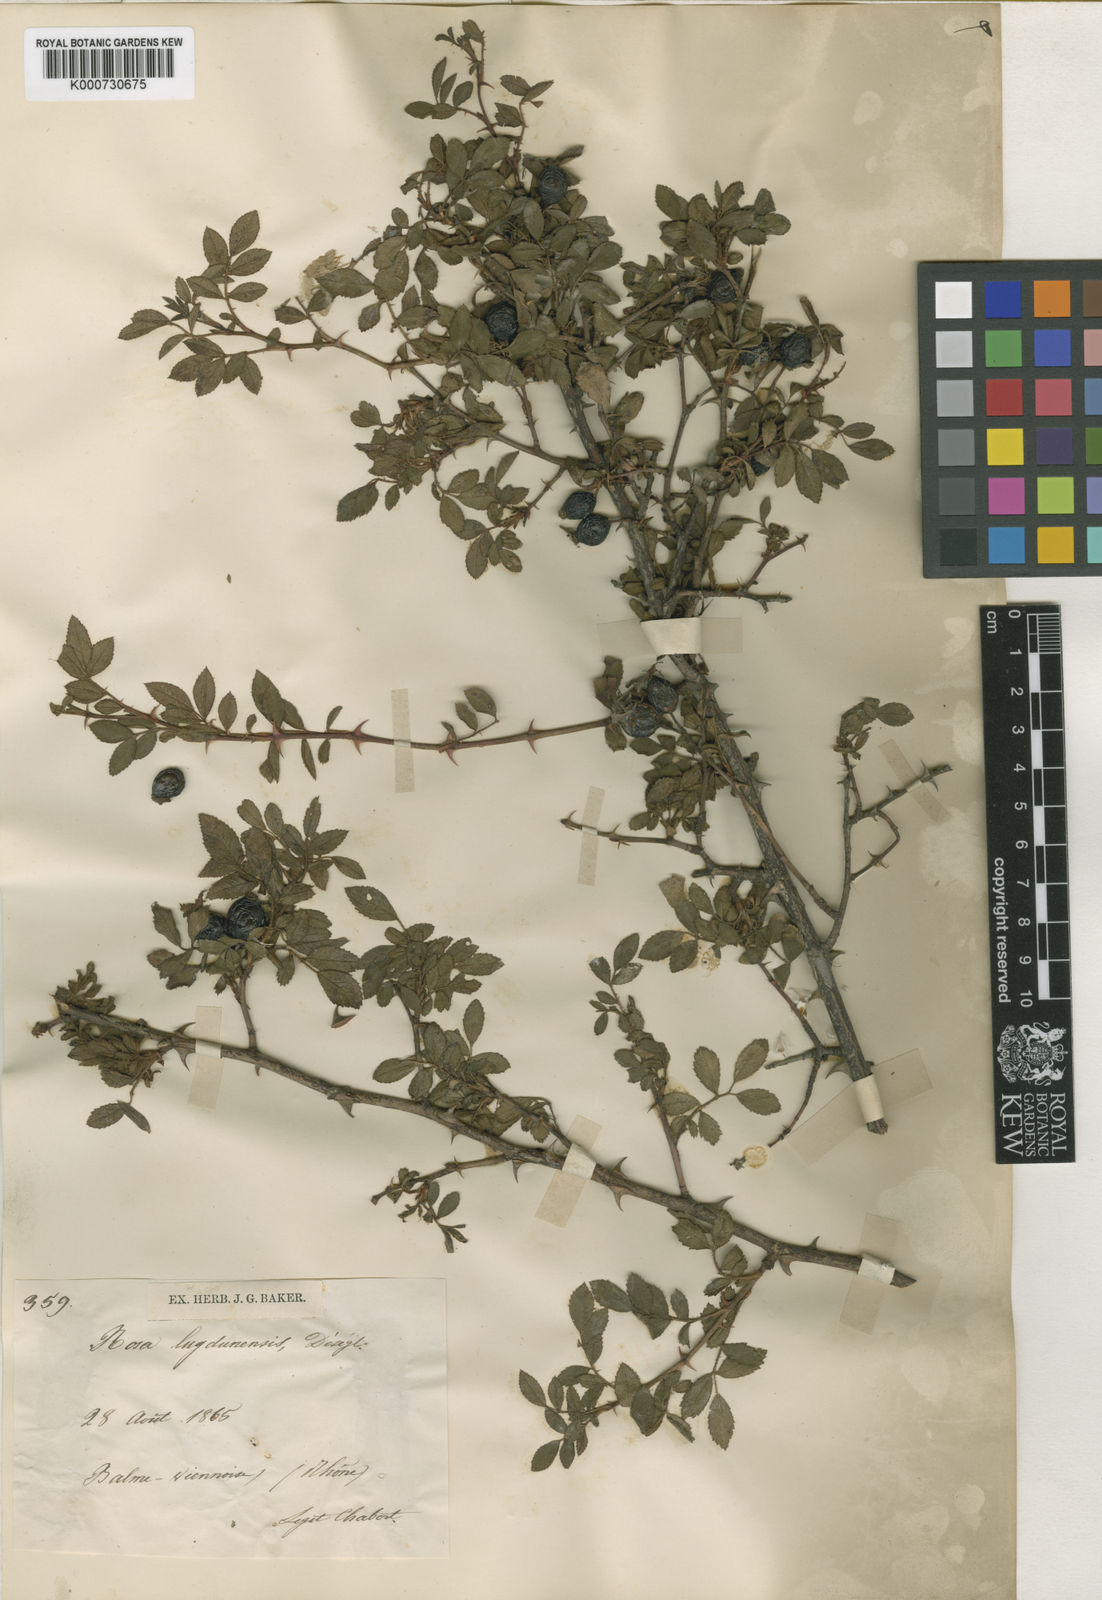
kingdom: Plantae
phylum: Tracheophyta
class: Magnoliopsida
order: Rosales
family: Rosaceae
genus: Rosa
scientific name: Rosa agrestis
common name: Fieldbriar
